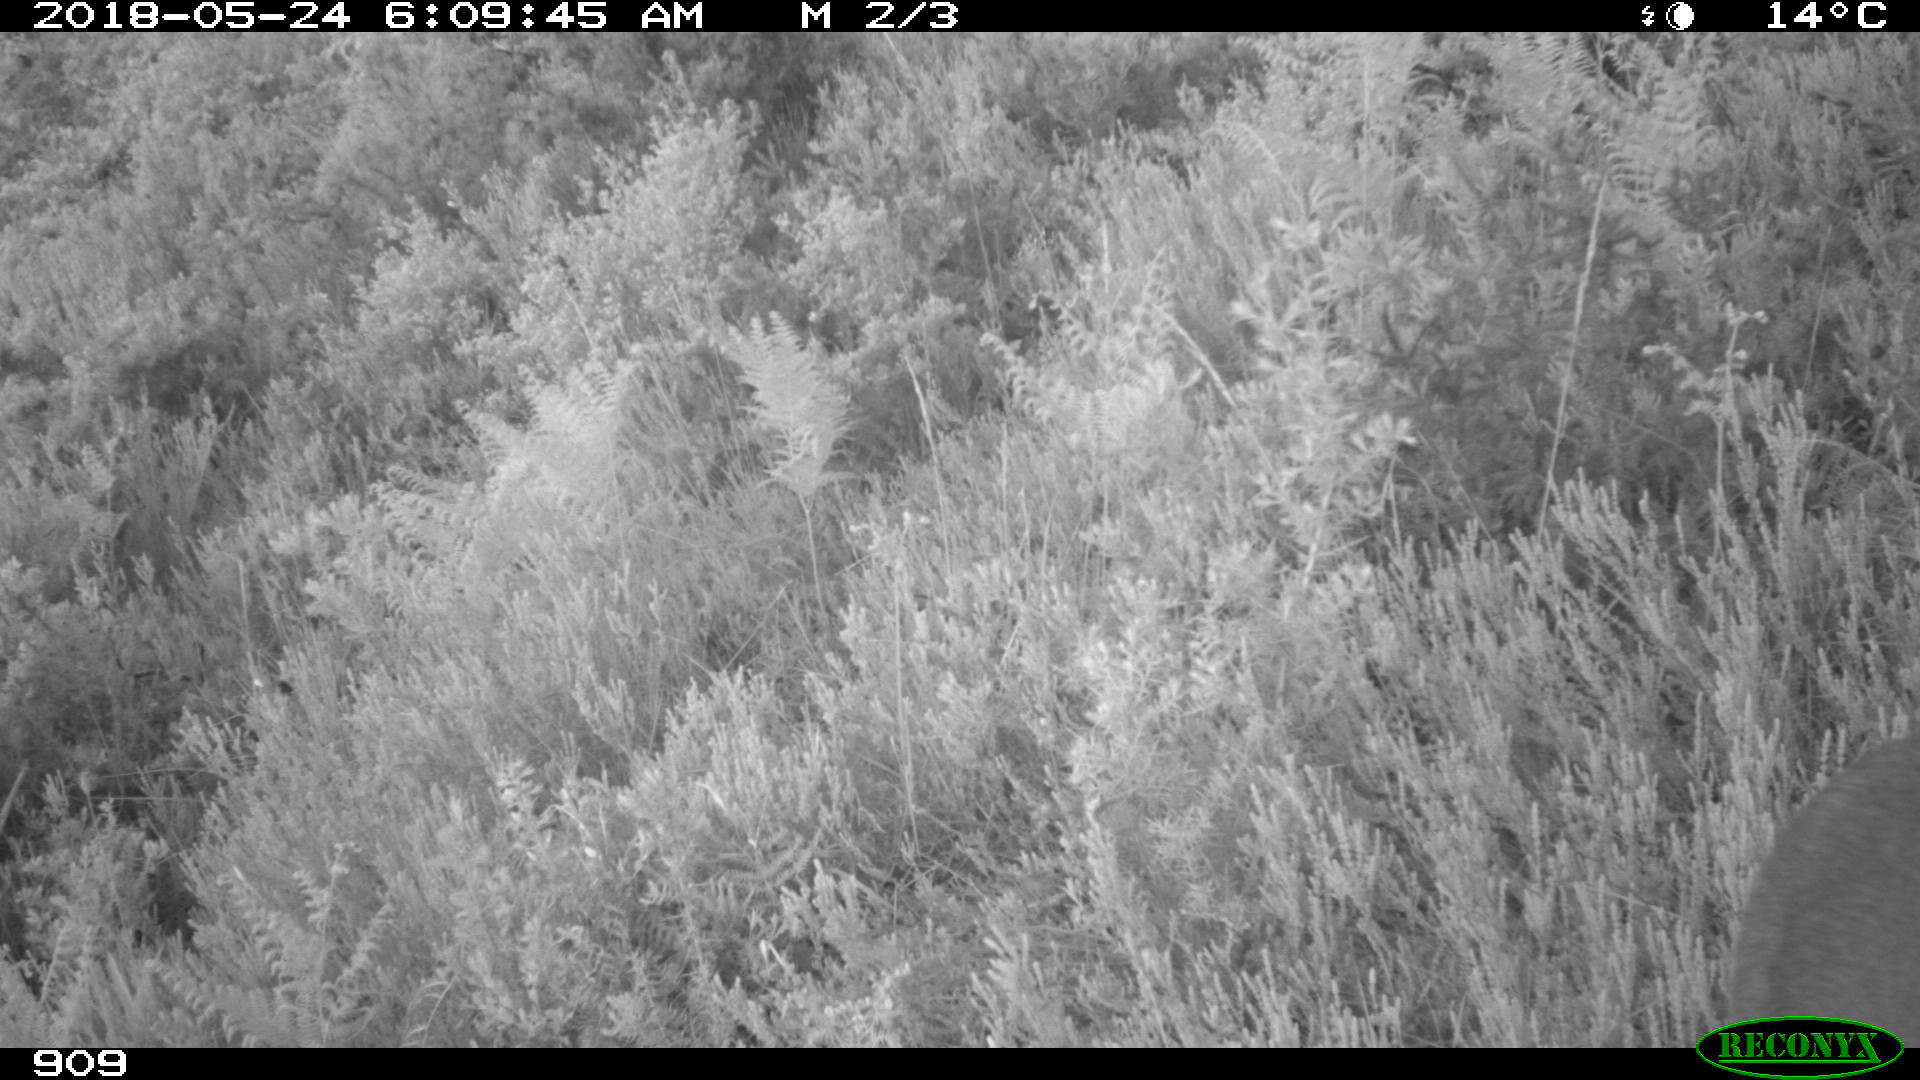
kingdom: Animalia
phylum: Chordata
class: Mammalia
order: Artiodactyla
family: Cervidae
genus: Capreolus
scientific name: Capreolus capreolus
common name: Western roe deer
